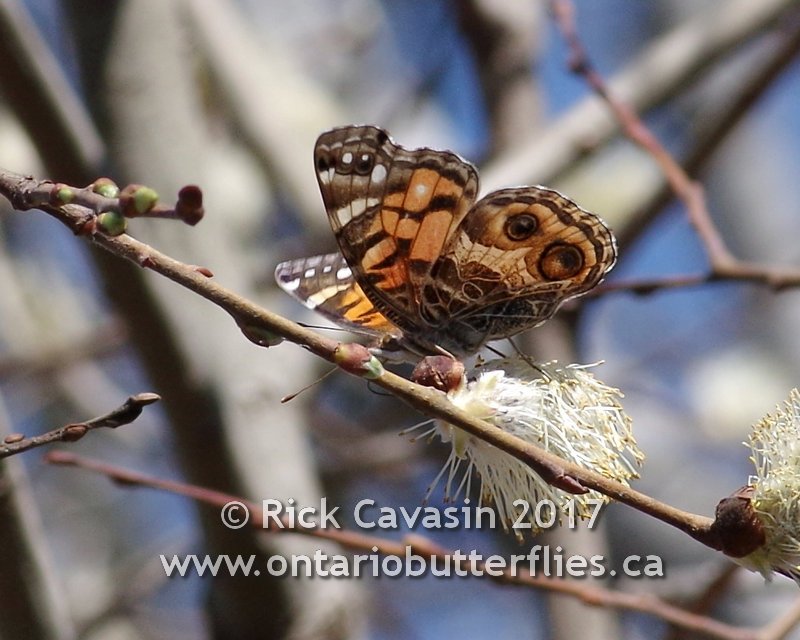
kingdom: Animalia
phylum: Arthropoda
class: Insecta
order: Lepidoptera
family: Nymphalidae
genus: Vanessa
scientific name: Vanessa virginiensis
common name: American Lady
